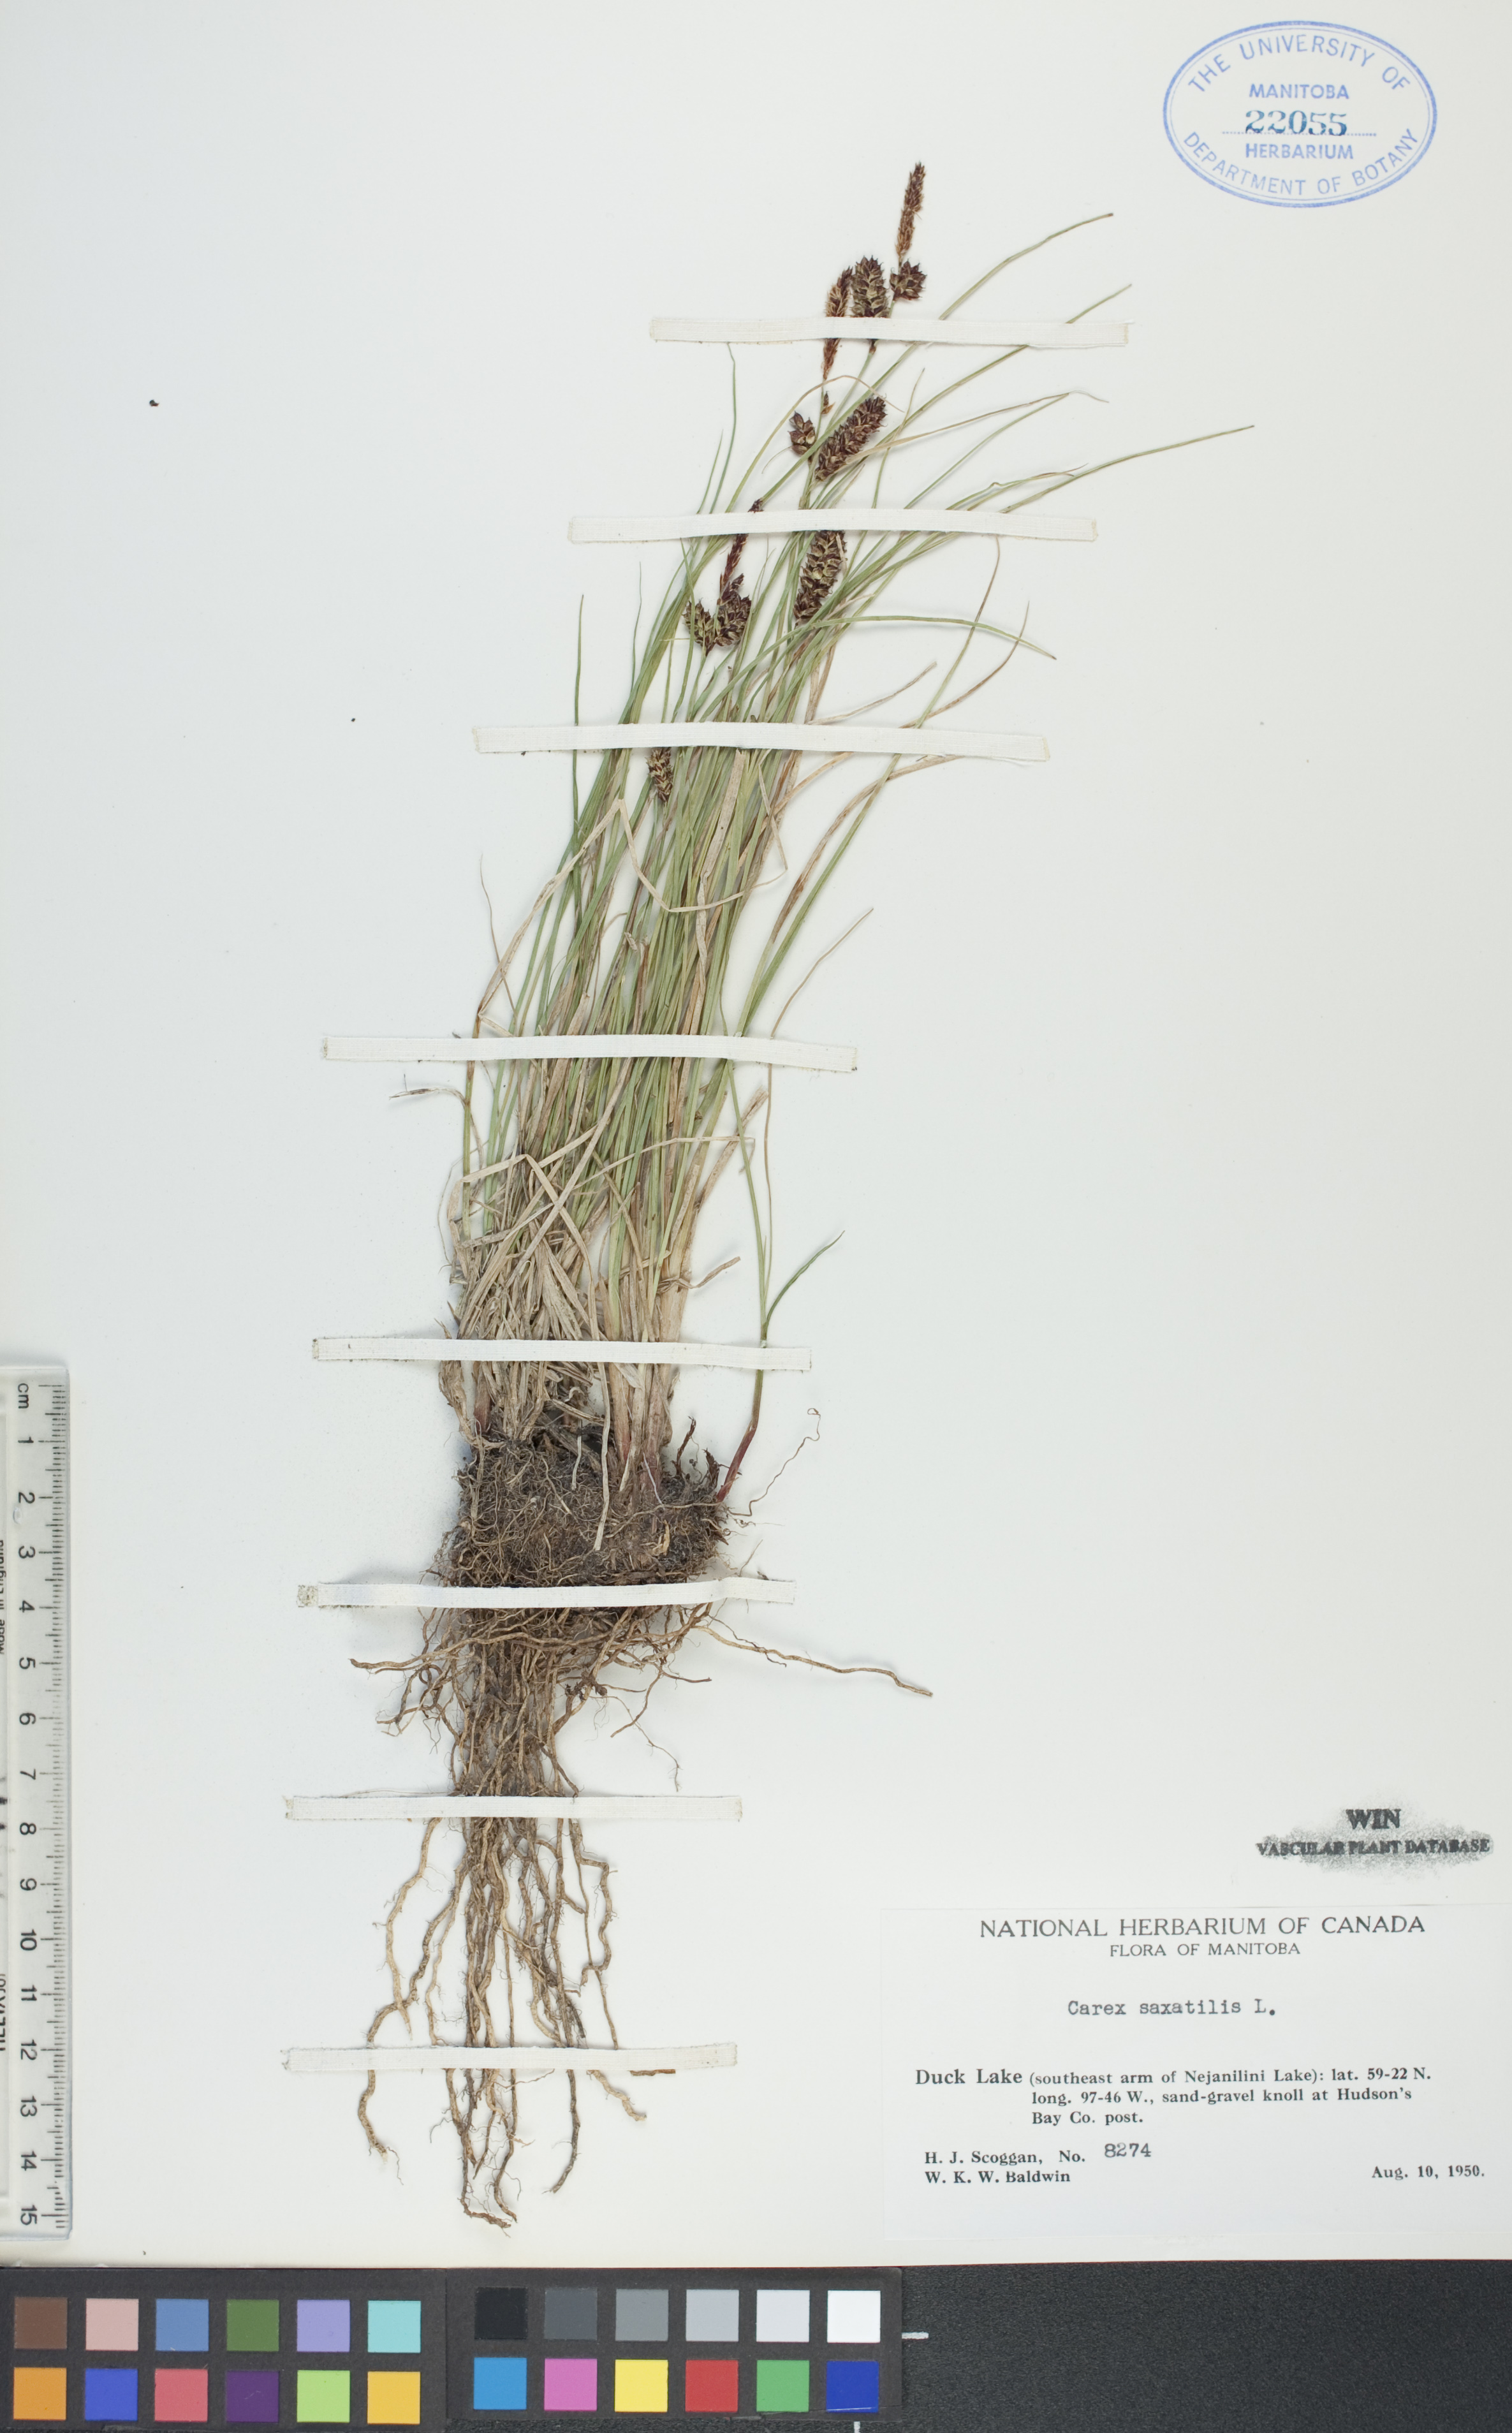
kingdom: Plantae
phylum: Tracheophyta
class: Liliopsida
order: Poales
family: Cyperaceae
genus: Carex
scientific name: Carex saxatilis
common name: Russet sedge
